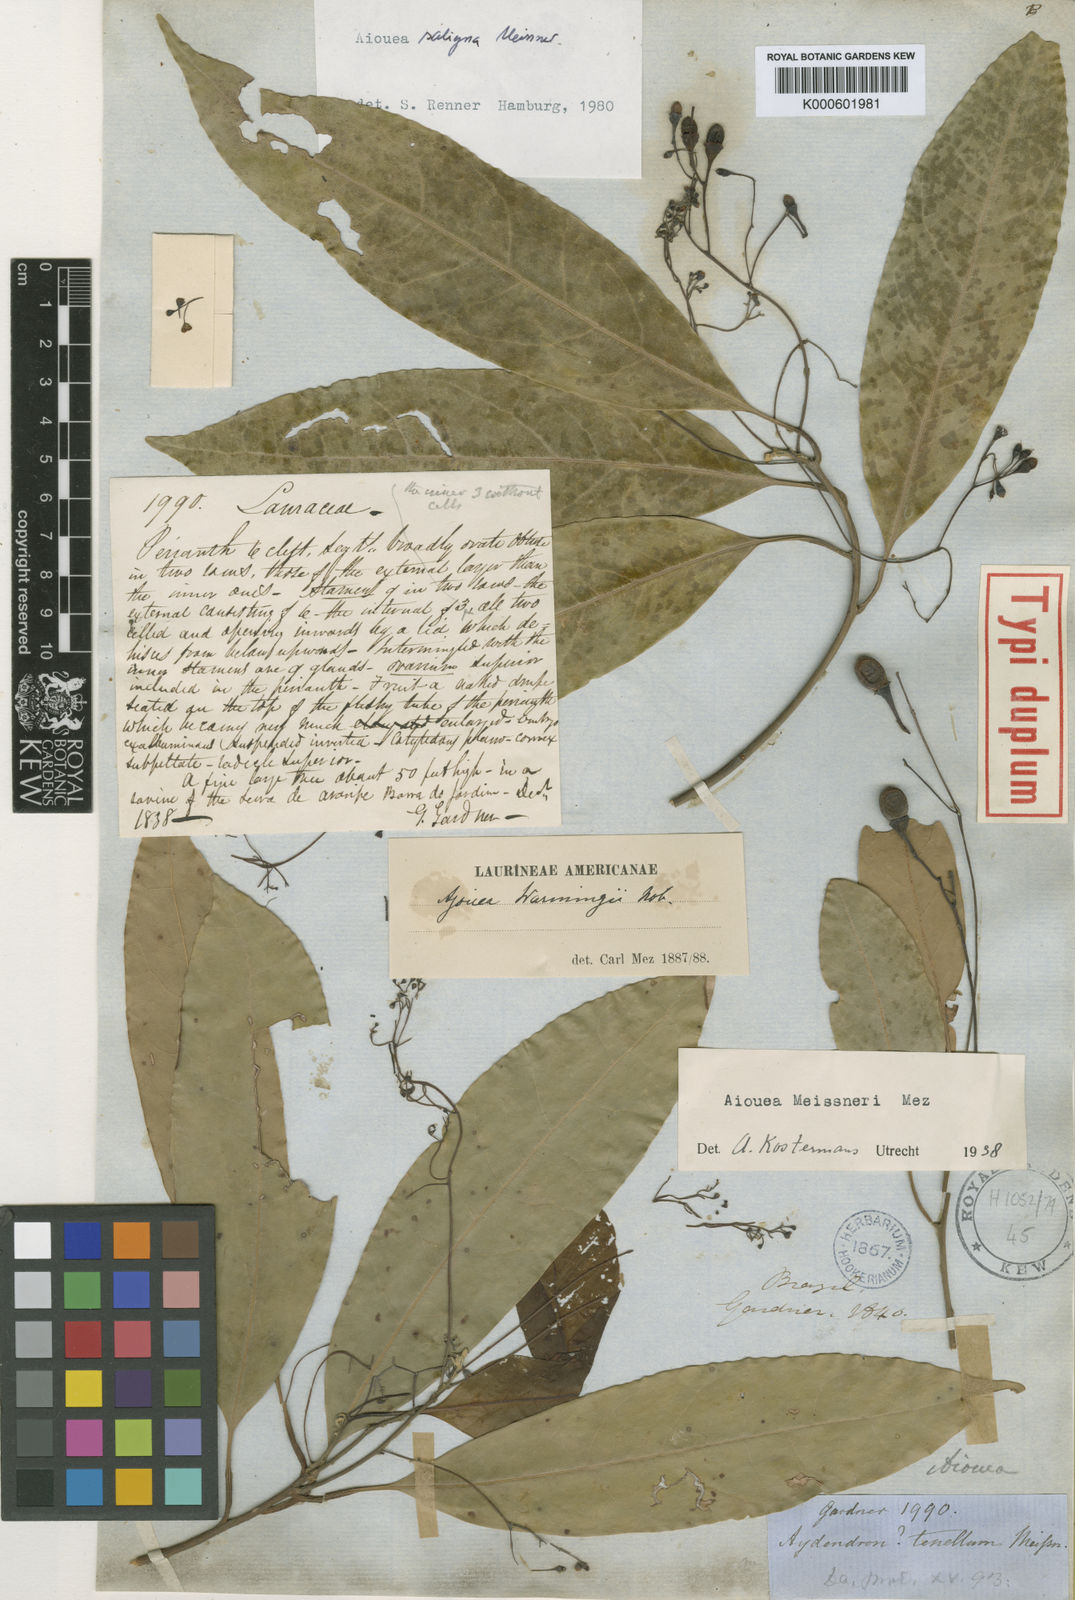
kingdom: Plantae
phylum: Tracheophyta
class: Magnoliopsida
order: Laurales
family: Lauraceae
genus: Aiouea
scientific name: Aiouea saligna
